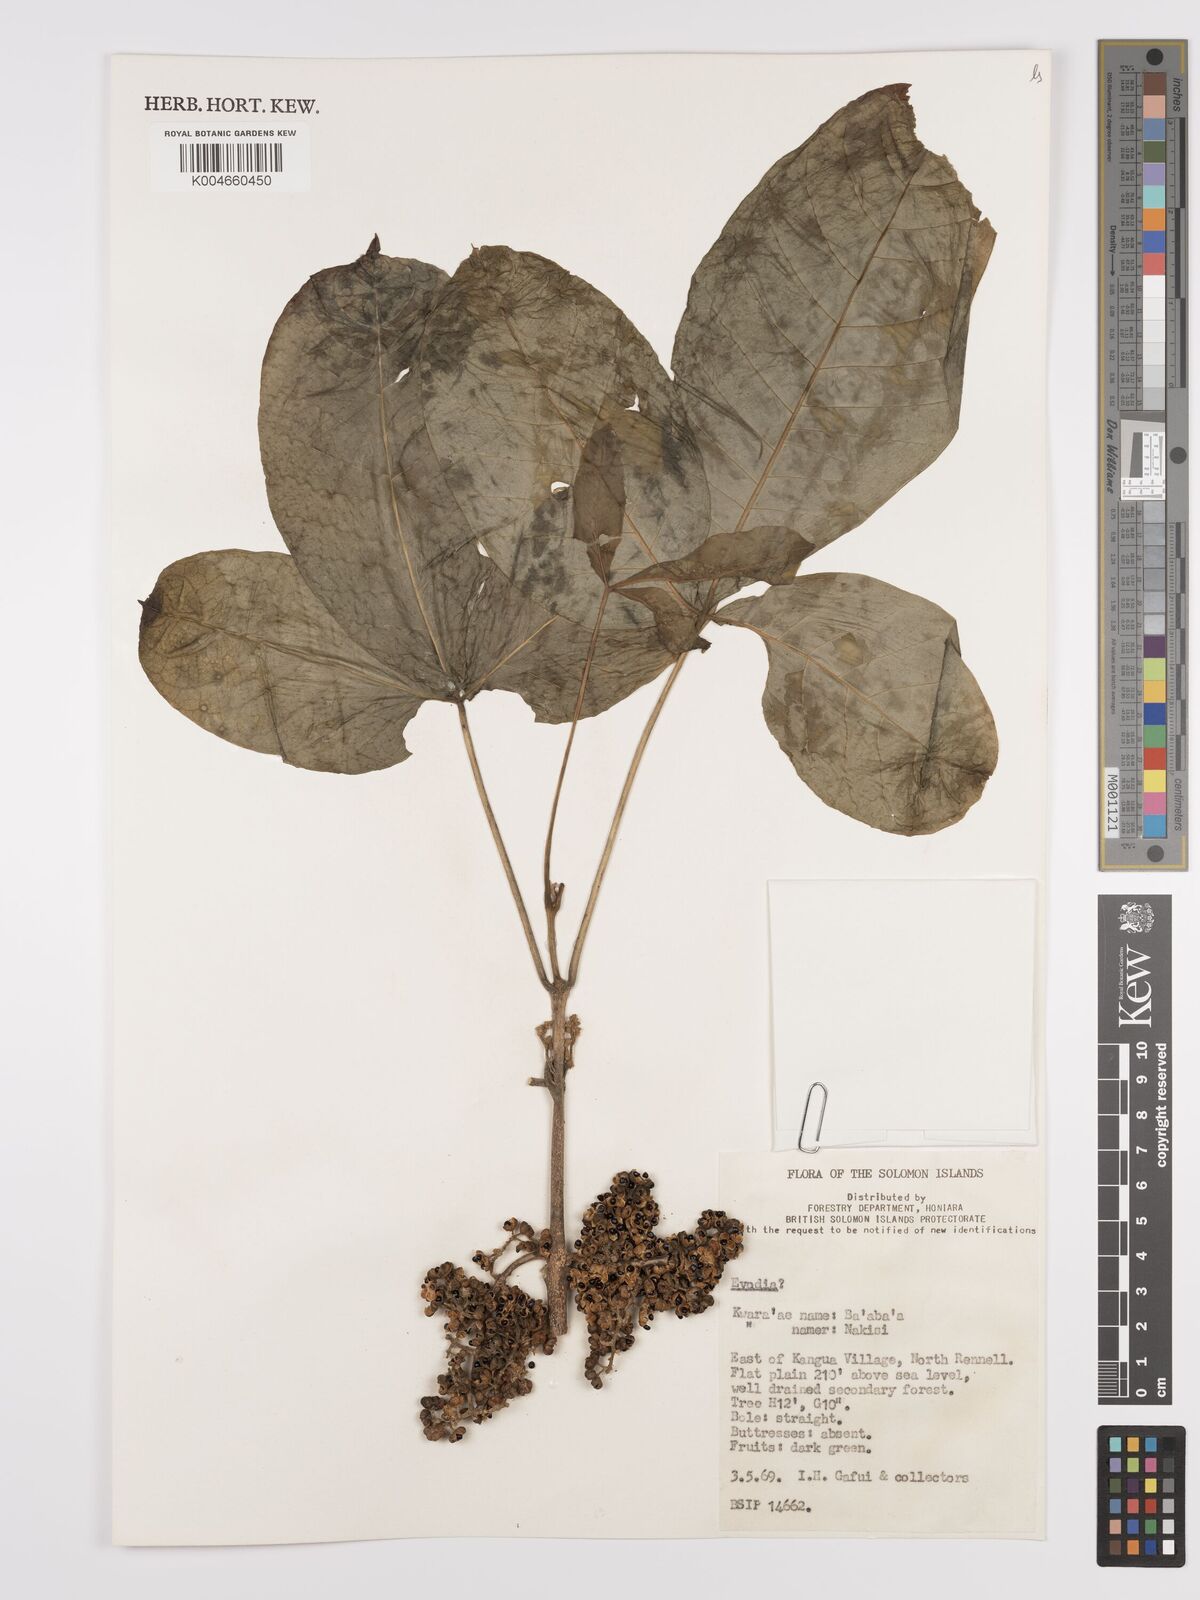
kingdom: Plantae
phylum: Tracheophyta
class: Magnoliopsida
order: Sapindales
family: Rutaceae
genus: Euodia
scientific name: Euodia
